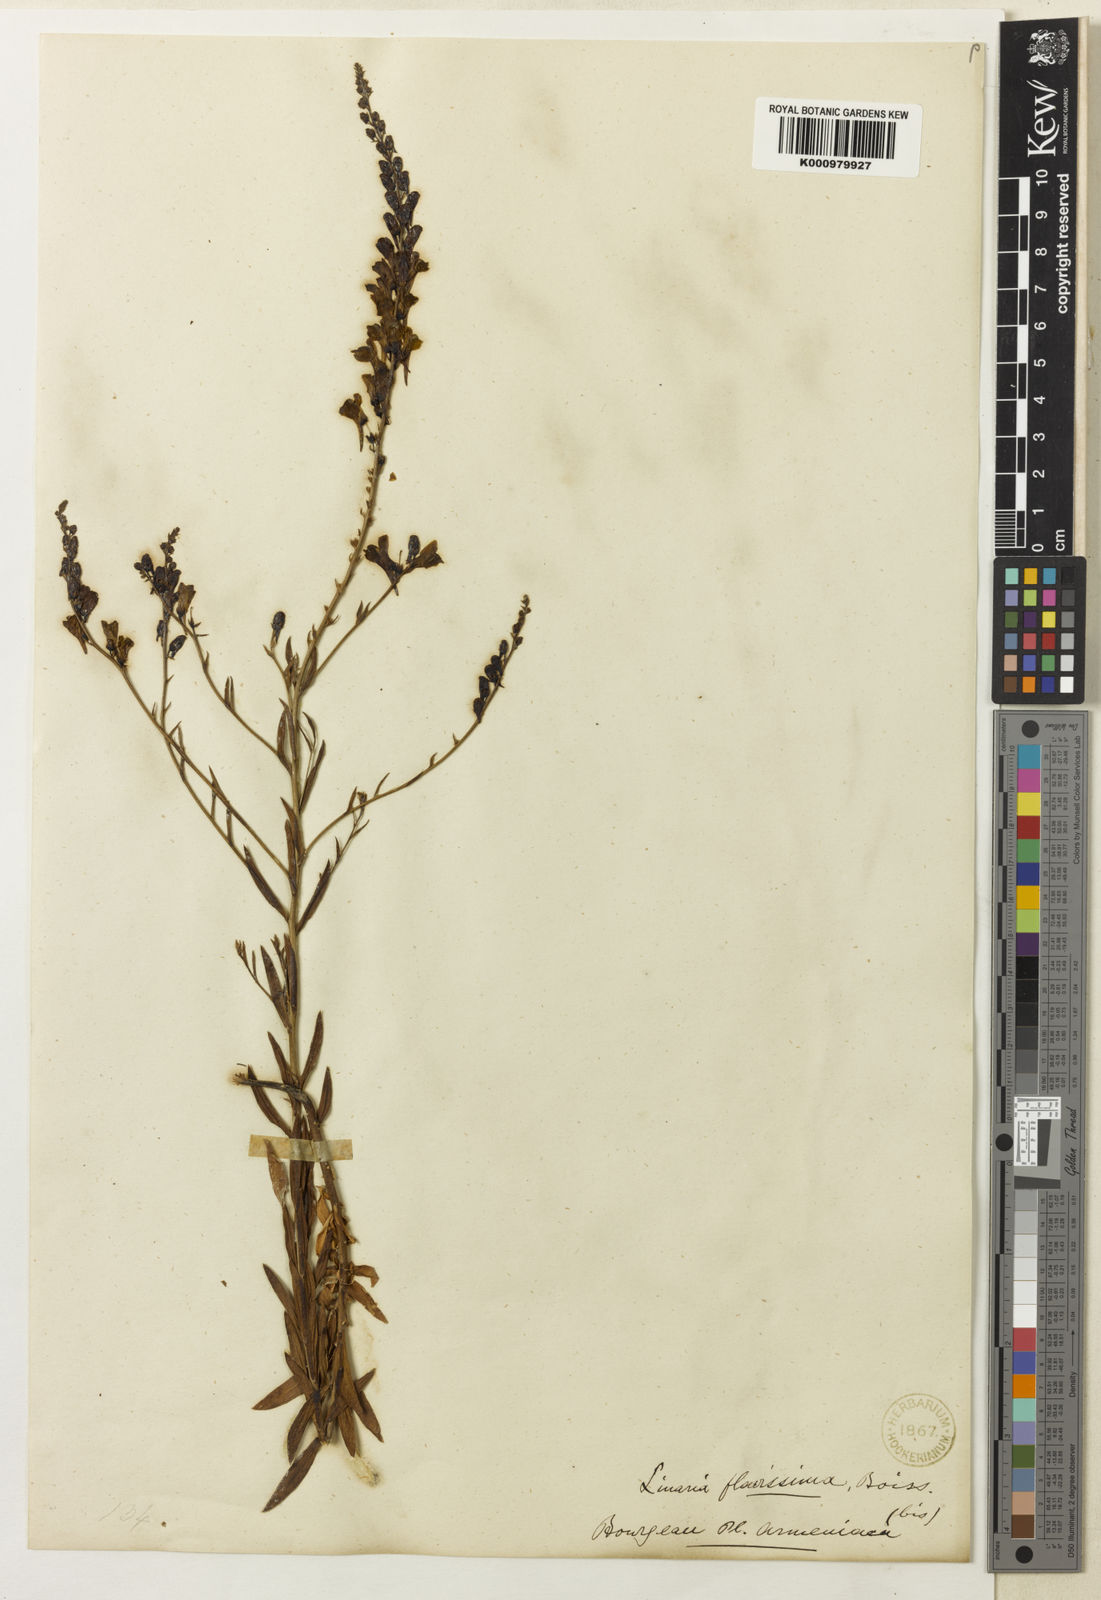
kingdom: Plantae
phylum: Tracheophyta
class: Magnoliopsida
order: Lamiales
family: Plantaginaceae
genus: Linaria
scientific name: Linaria genistifolia
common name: Broomleaf toadflax
